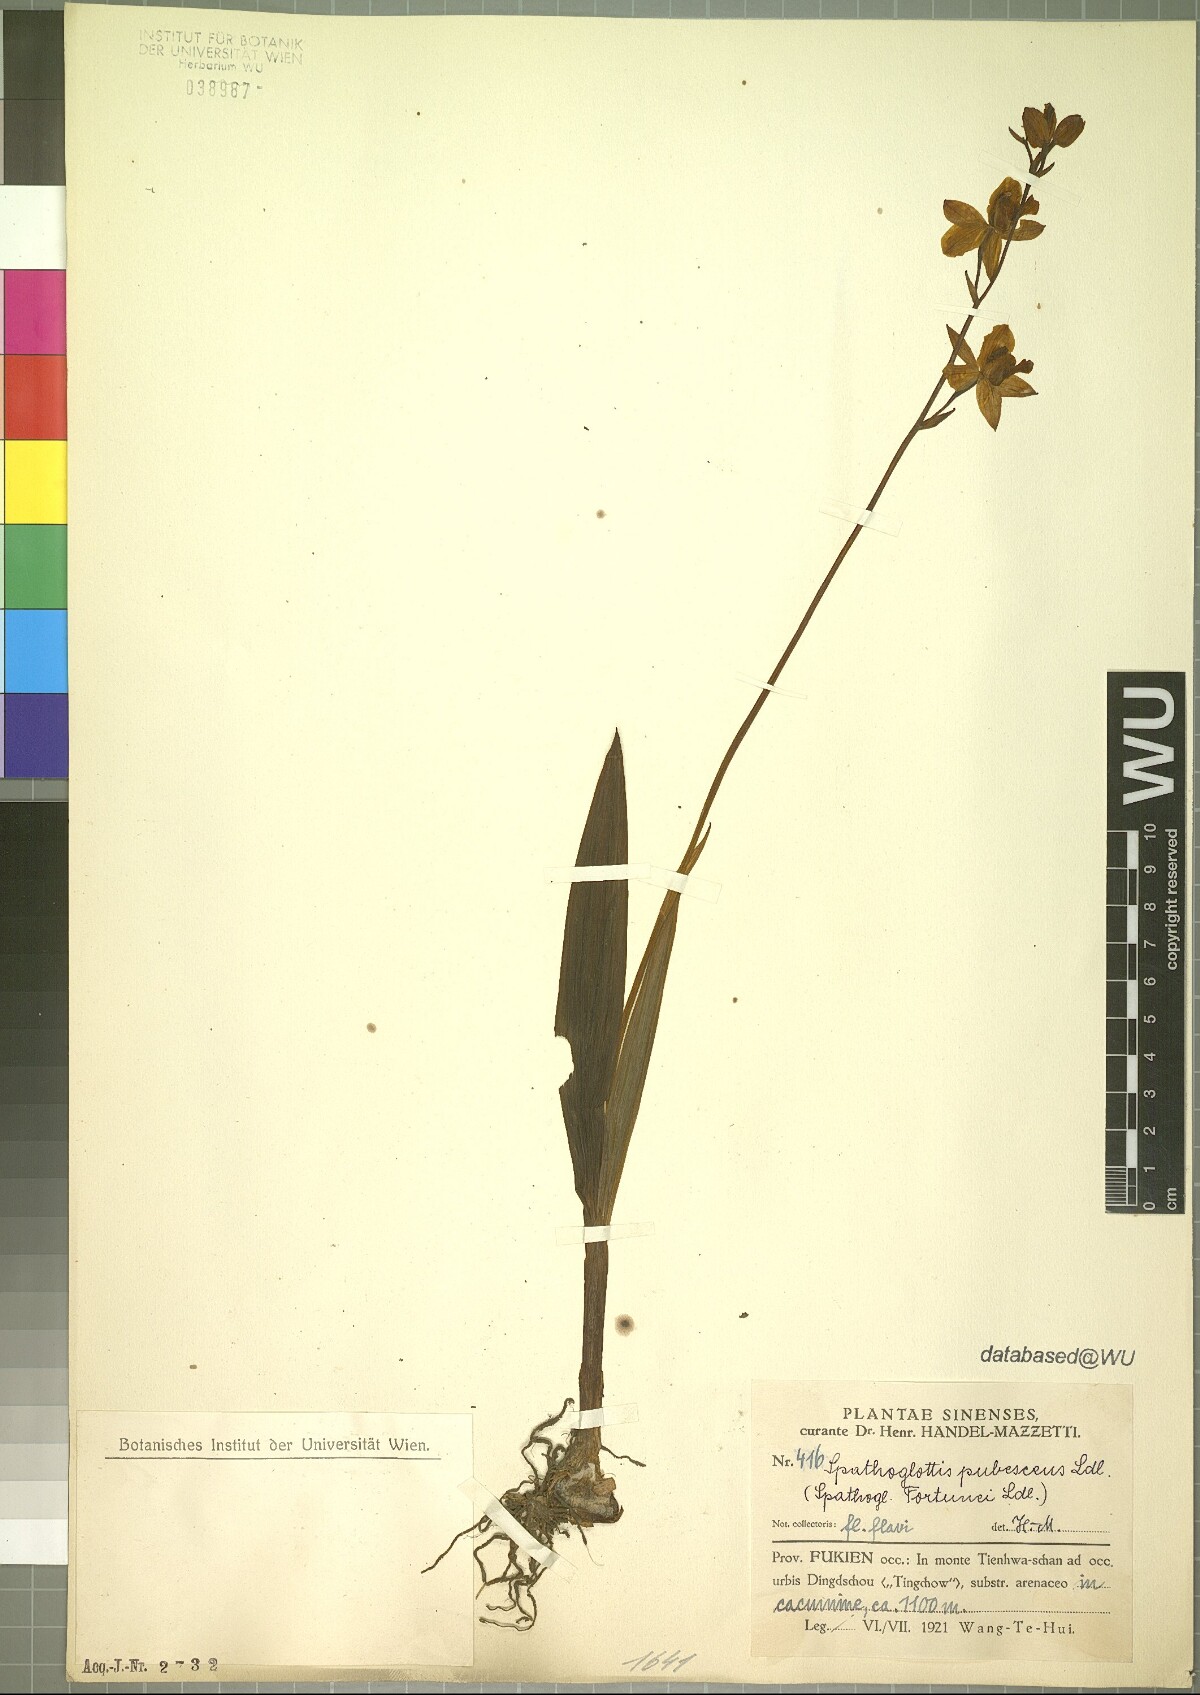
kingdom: Plantae
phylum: Tracheophyta
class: Liliopsida
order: Asparagales
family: Orchidaceae
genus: Spathoglottis
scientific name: Spathoglottis pubescens
